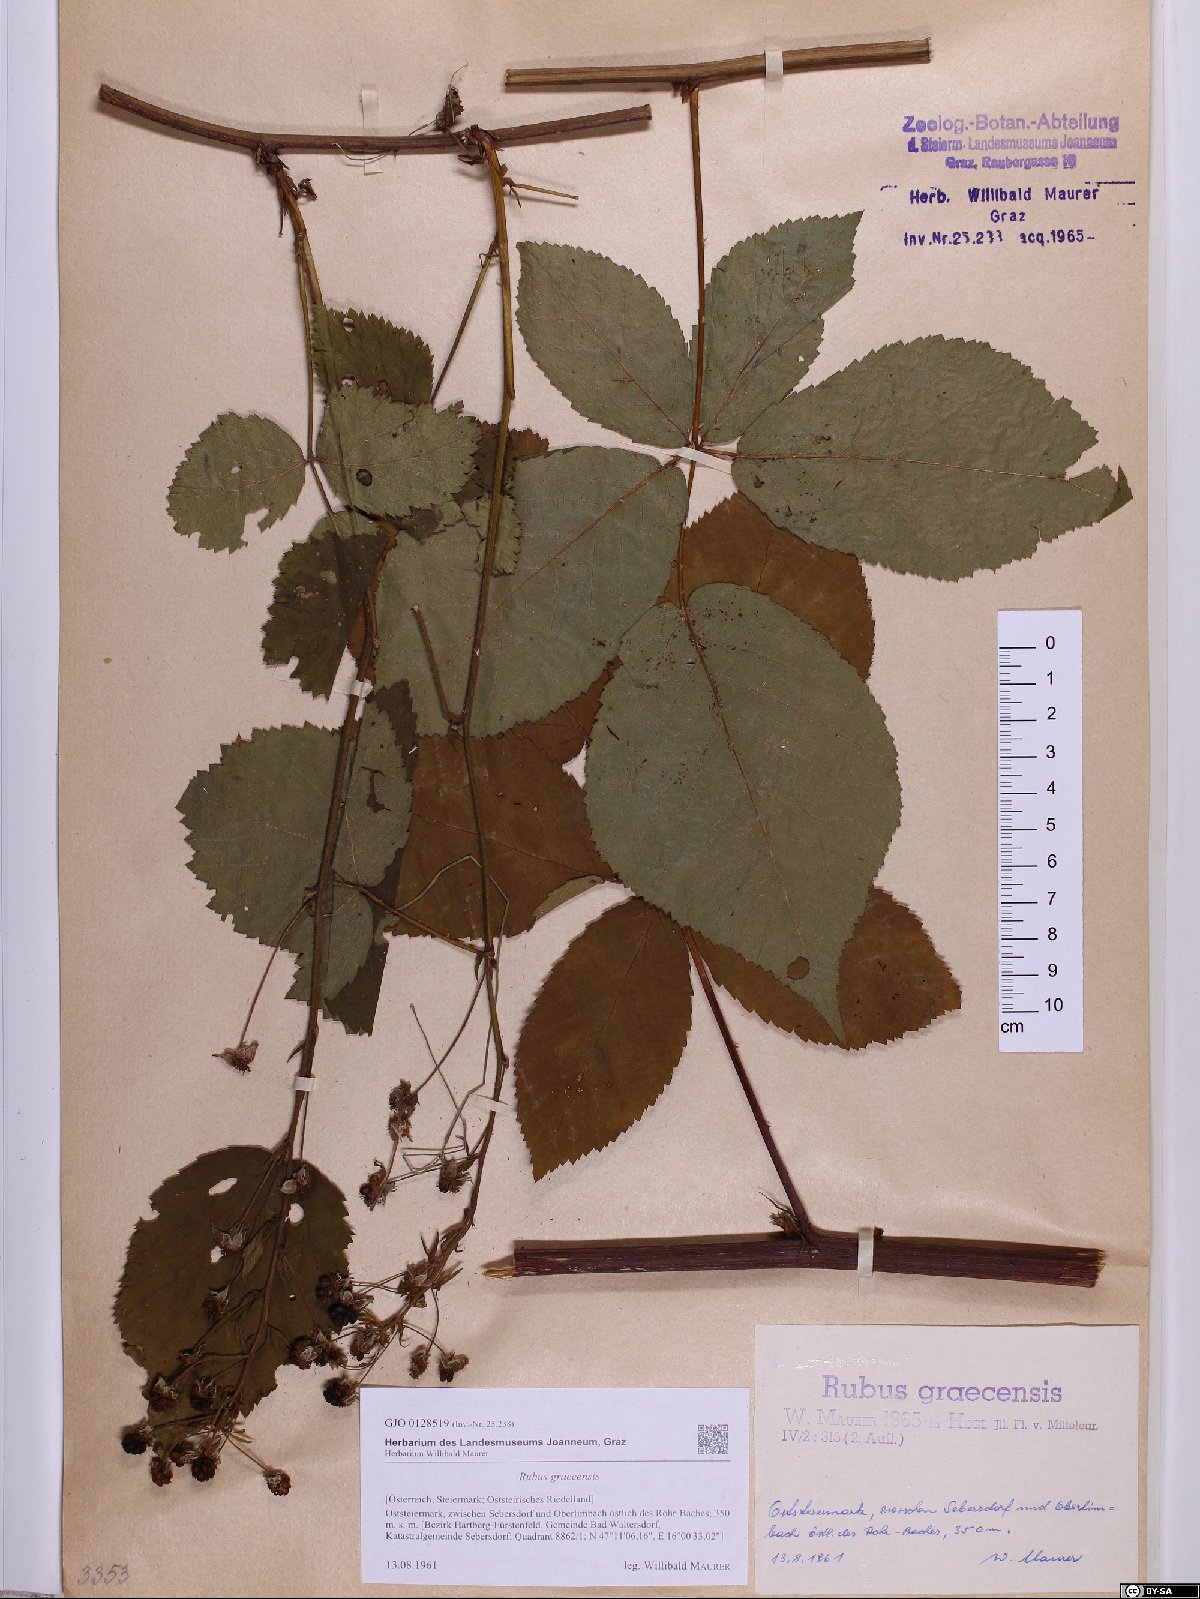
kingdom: Plantae
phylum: Tracheophyta
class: Magnoliopsida
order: Rosales
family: Rosaceae
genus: Rubus
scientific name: Rubus graecensis
